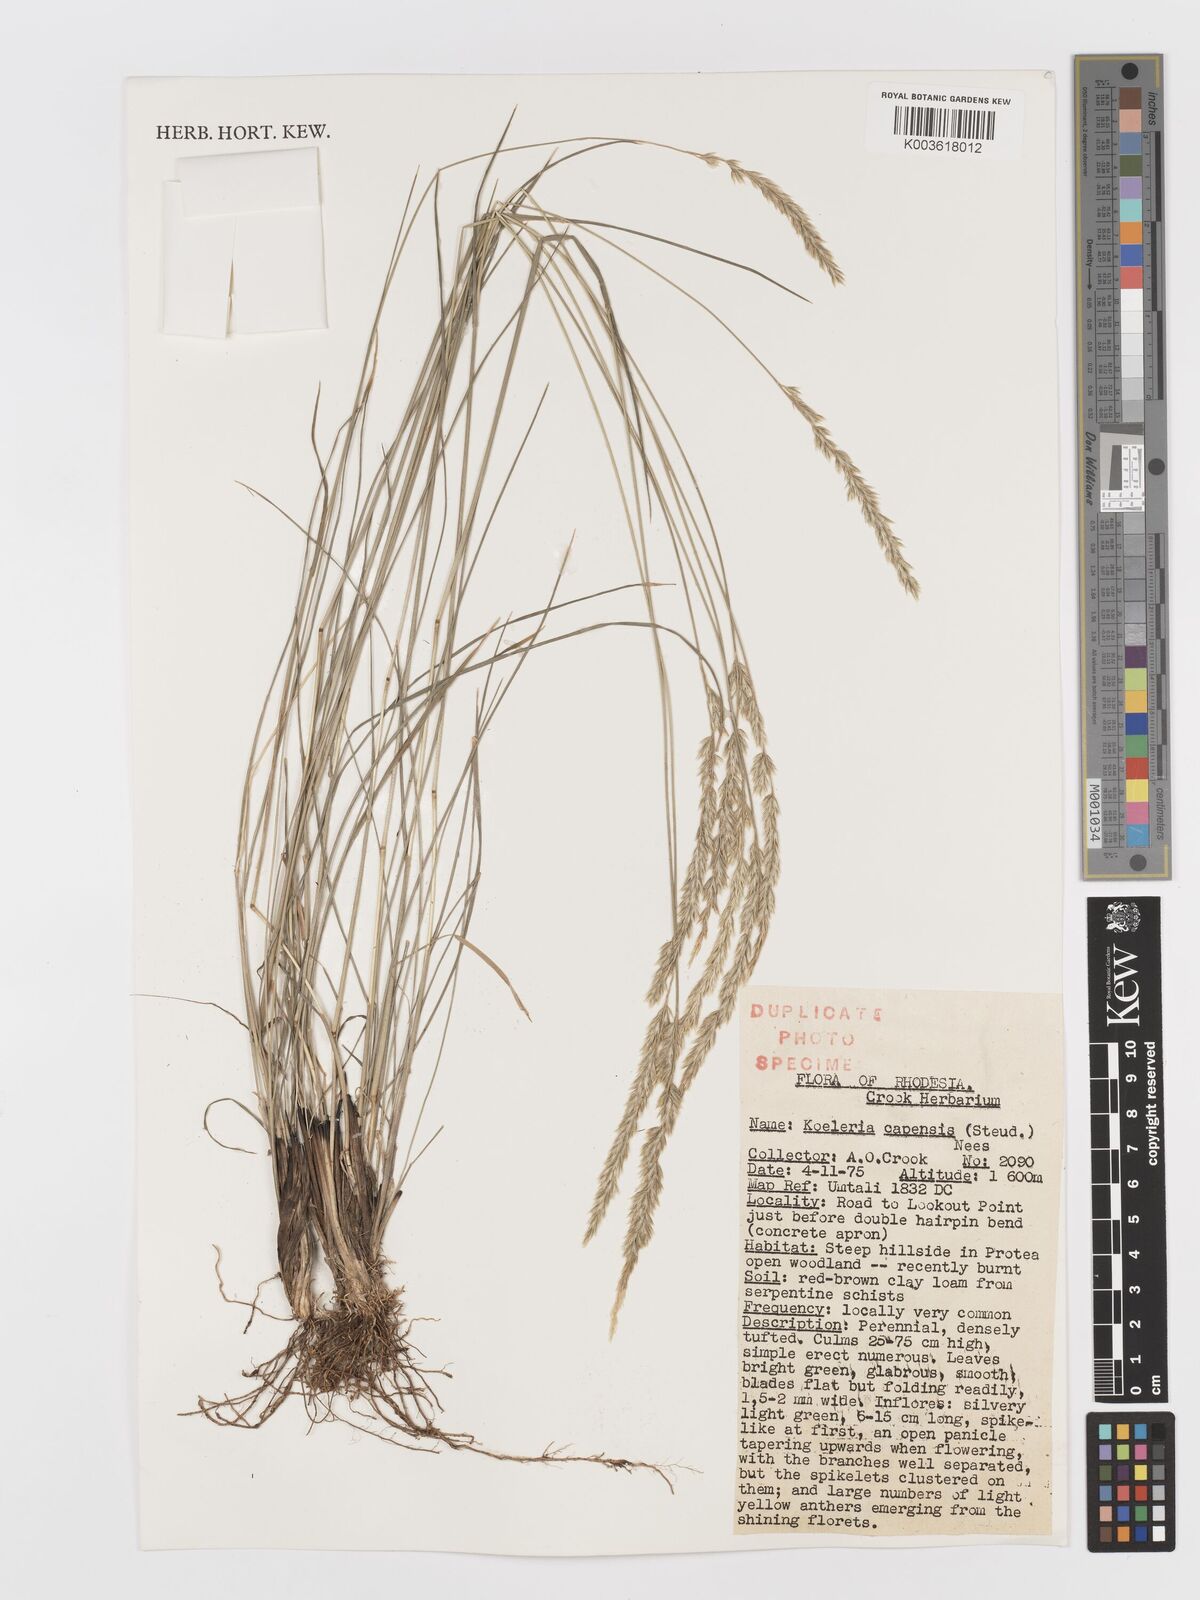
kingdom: Plantae
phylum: Tracheophyta
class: Liliopsida
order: Poales
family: Poaceae
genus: Koeleria
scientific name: Koeleria capensis
